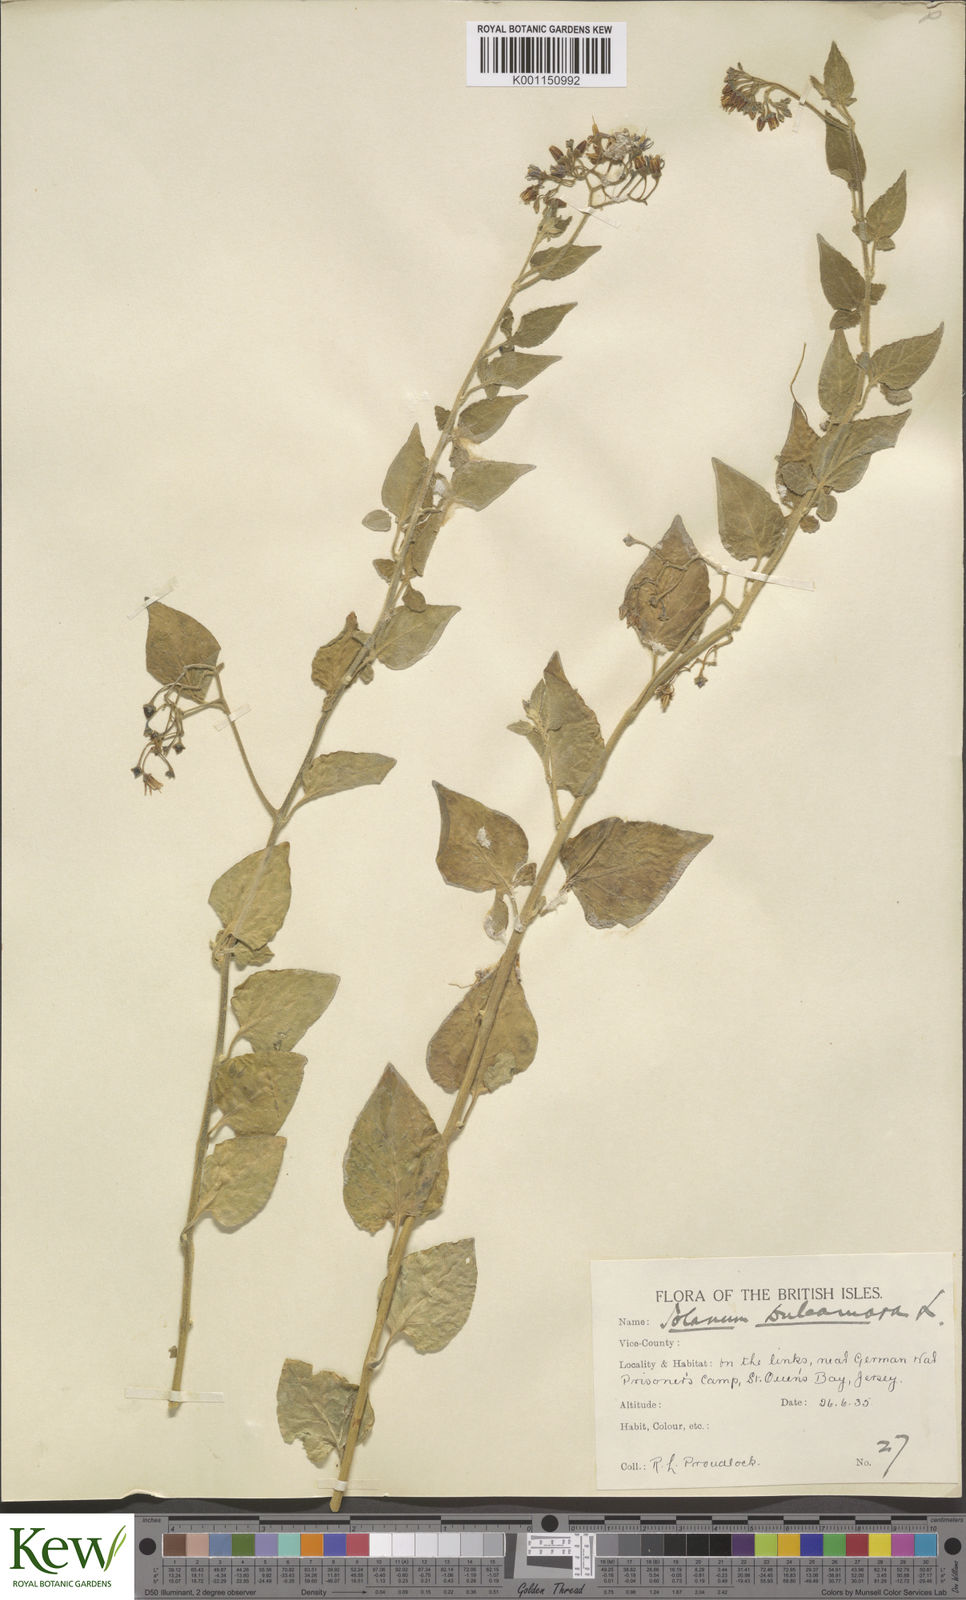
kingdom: Plantae
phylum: Tracheophyta
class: Magnoliopsida
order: Solanales
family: Solanaceae
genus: Solanum
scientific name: Solanum dulcamara
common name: Climbing nightshade
